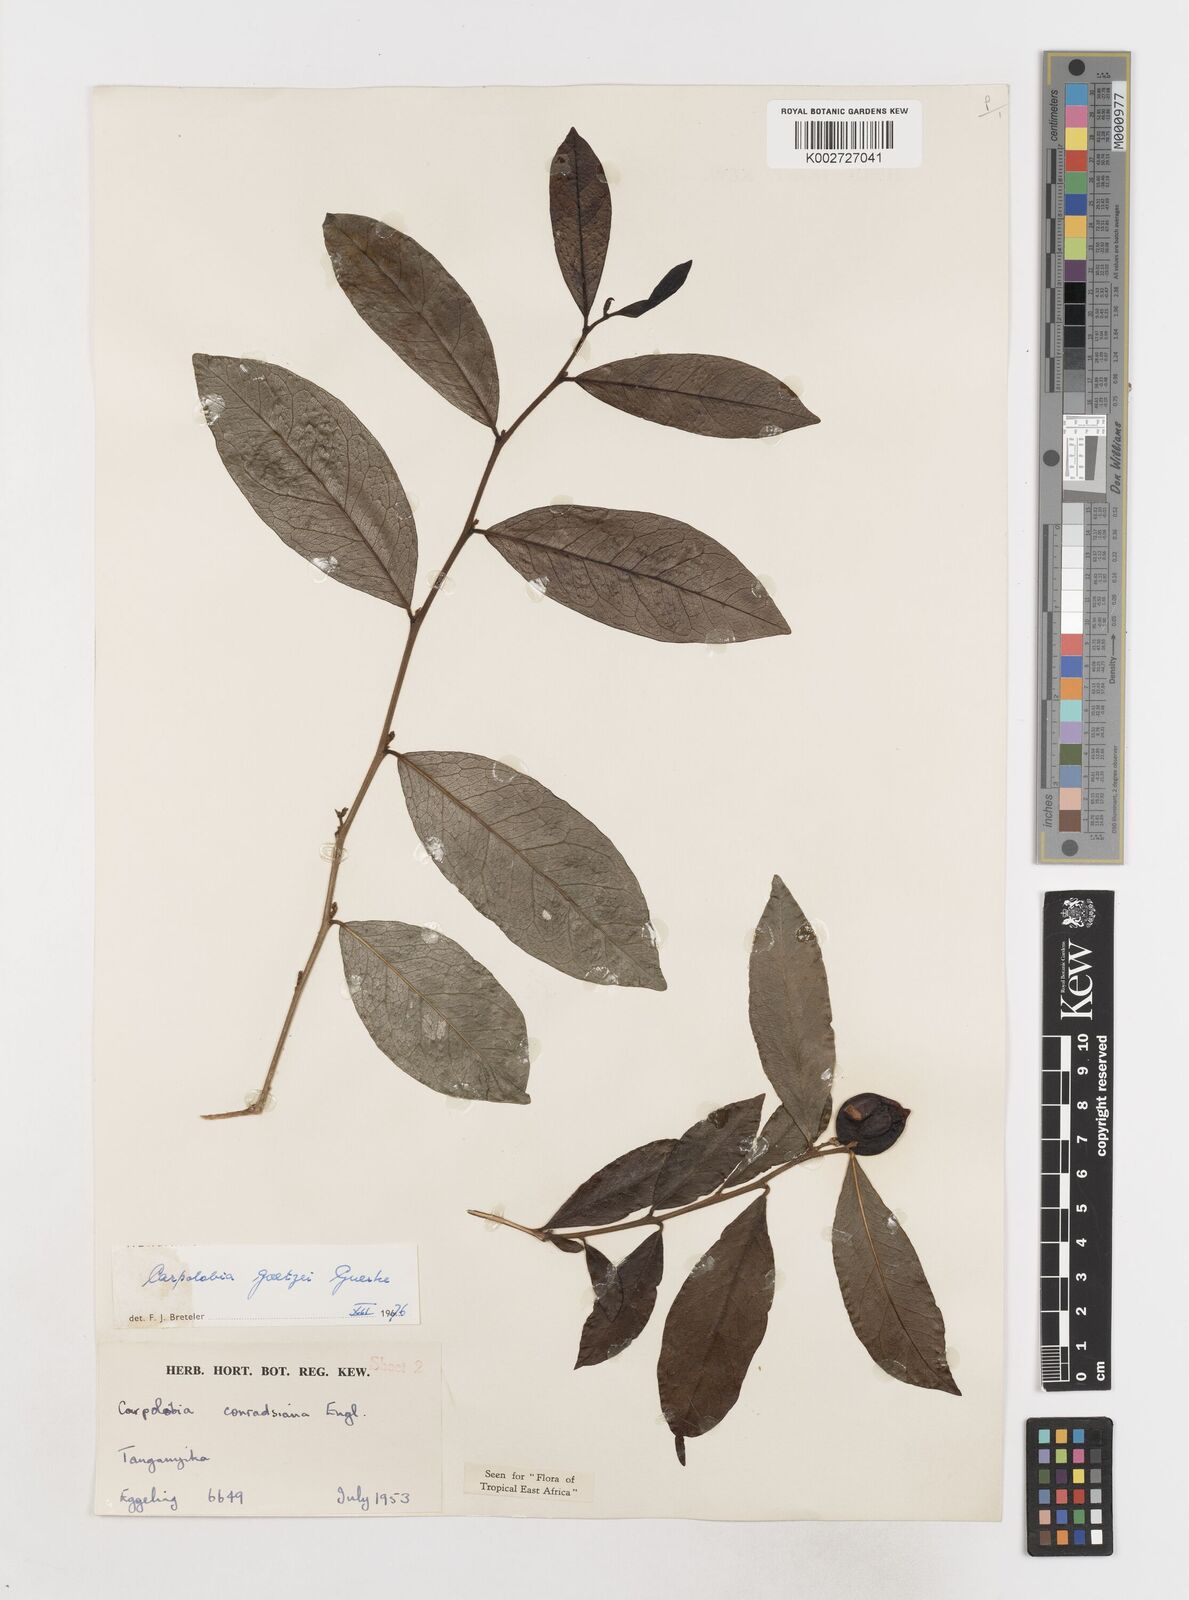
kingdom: Plantae
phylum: Tracheophyta
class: Magnoliopsida
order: Fabales
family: Polygalaceae
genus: Carpolobia
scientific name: Carpolobia goetzei
